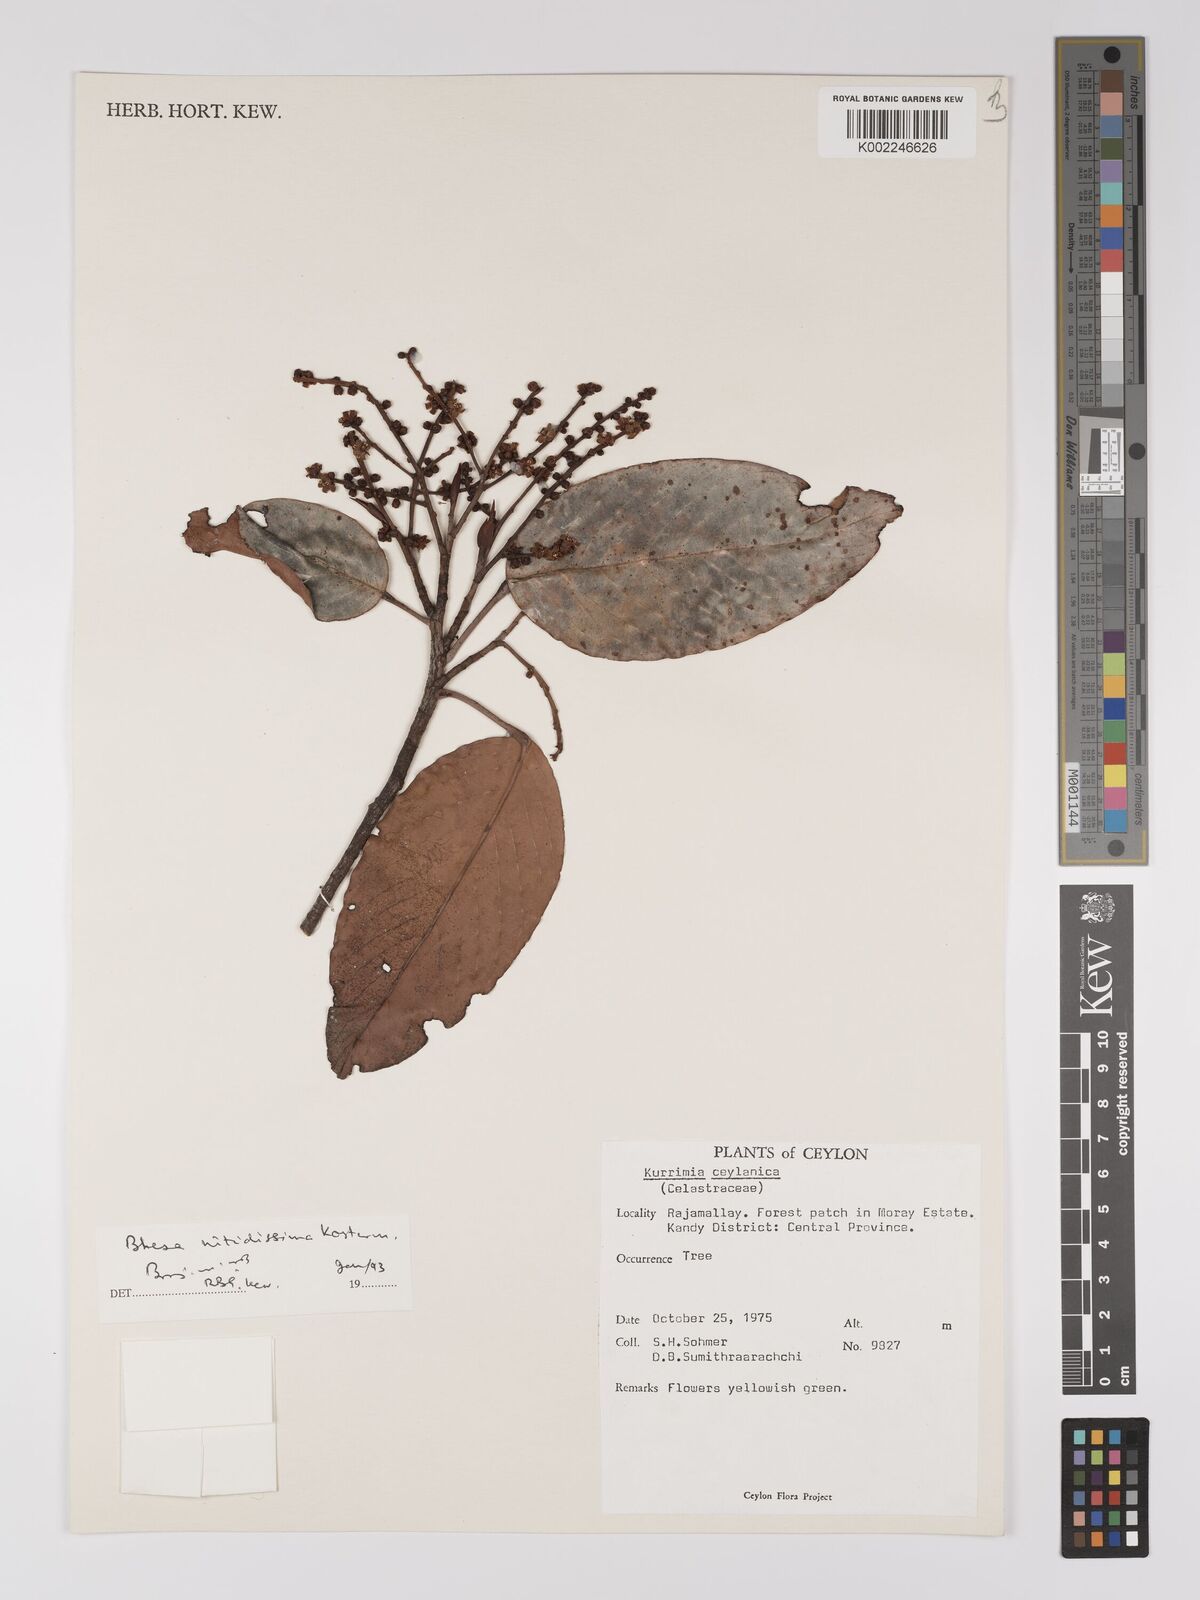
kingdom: Plantae
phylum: Tracheophyta
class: Magnoliopsida
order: Malpighiales
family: Centroplacaceae
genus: Bhesa
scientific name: Bhesa nitidissima
